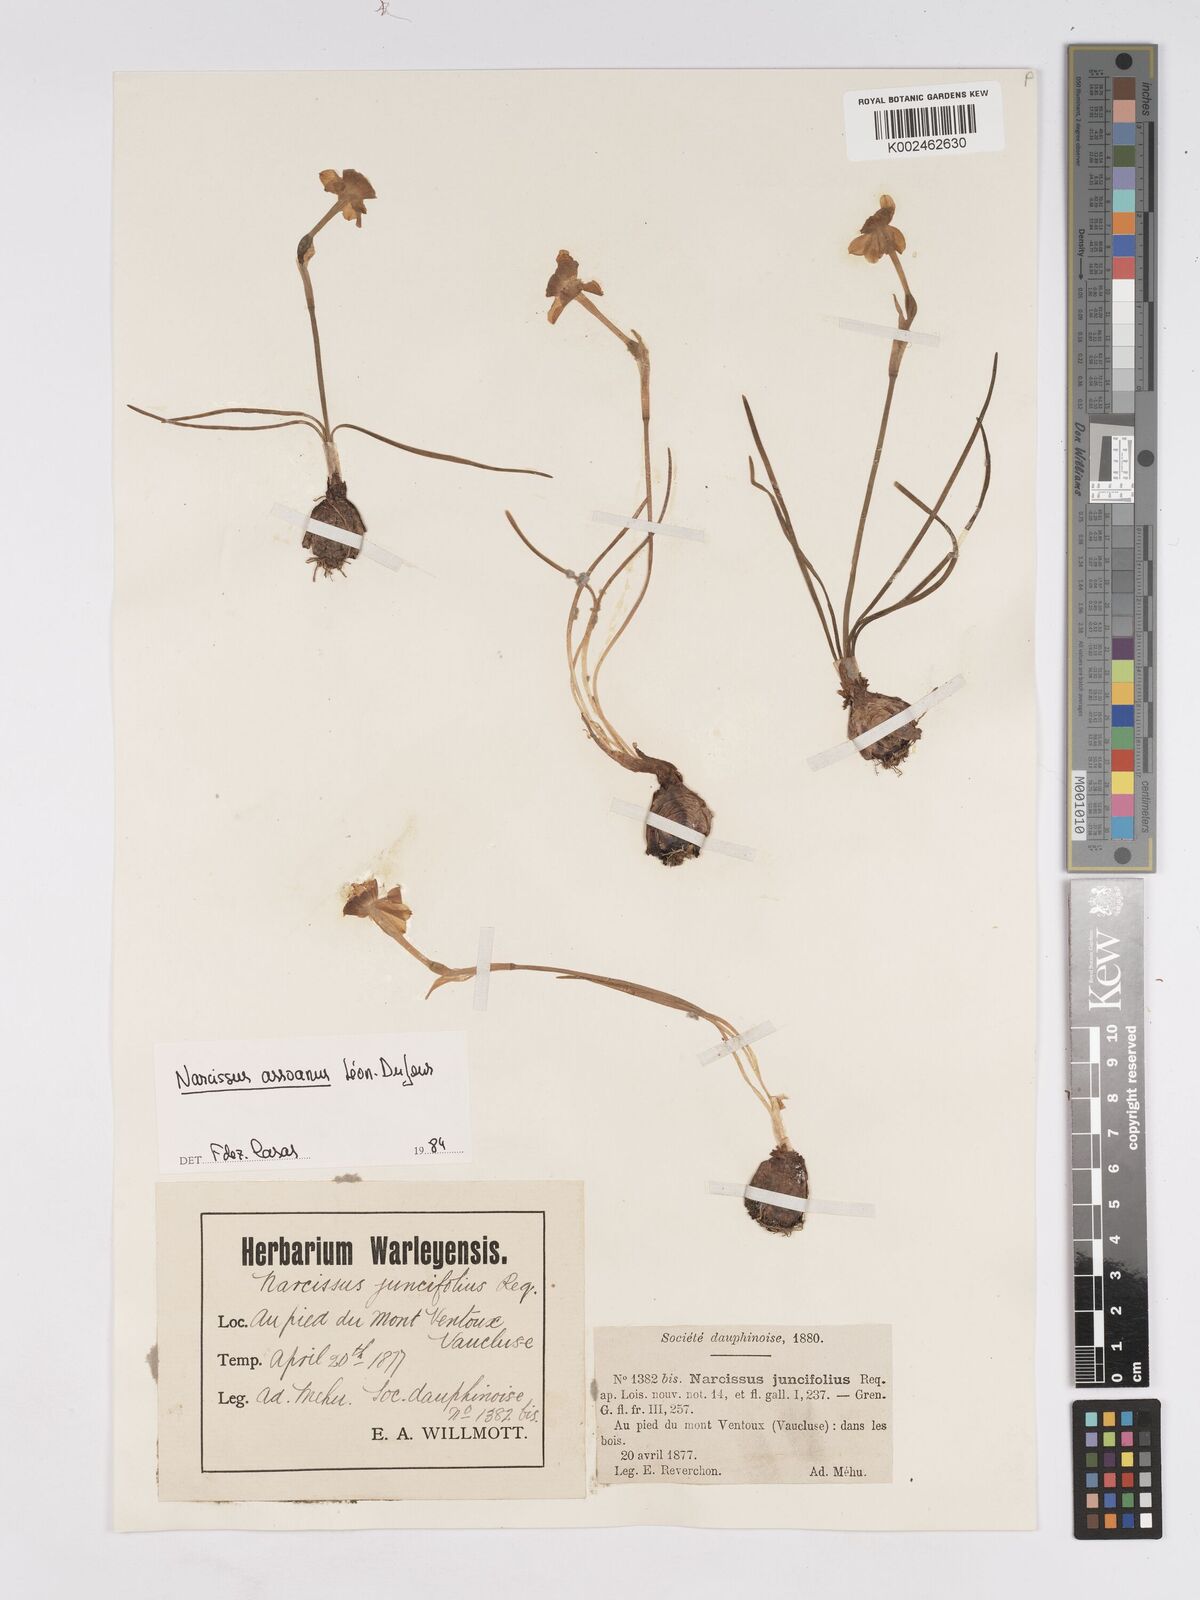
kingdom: Plantae
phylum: Tracheophyta
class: Liliopsida
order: Asparagales
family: Amaryllidaceae
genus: Narcissus
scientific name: Narcissus assoanus
